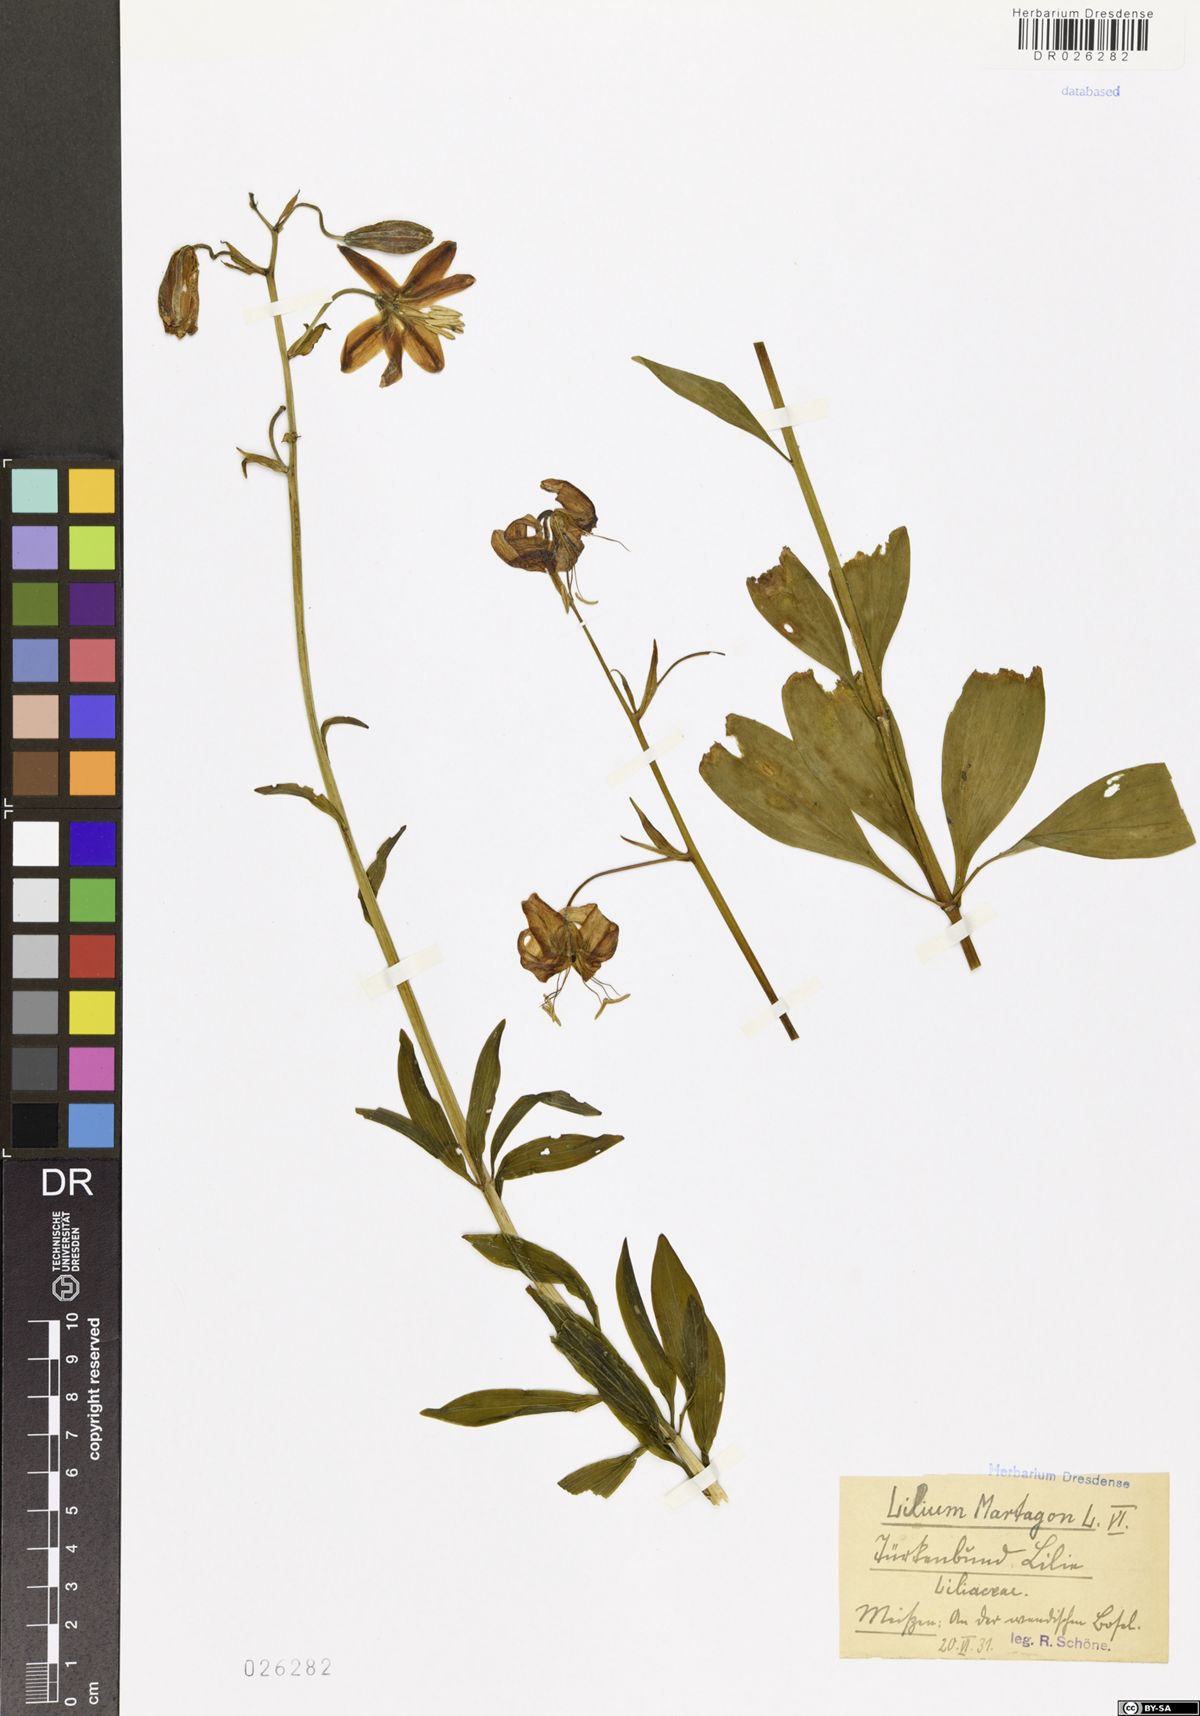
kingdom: Plantae
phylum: Tracheophyta
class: Liliopsida
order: Liliales
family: Liliaceae
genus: Lilium
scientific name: Lilium martagon
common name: Martagon lily
